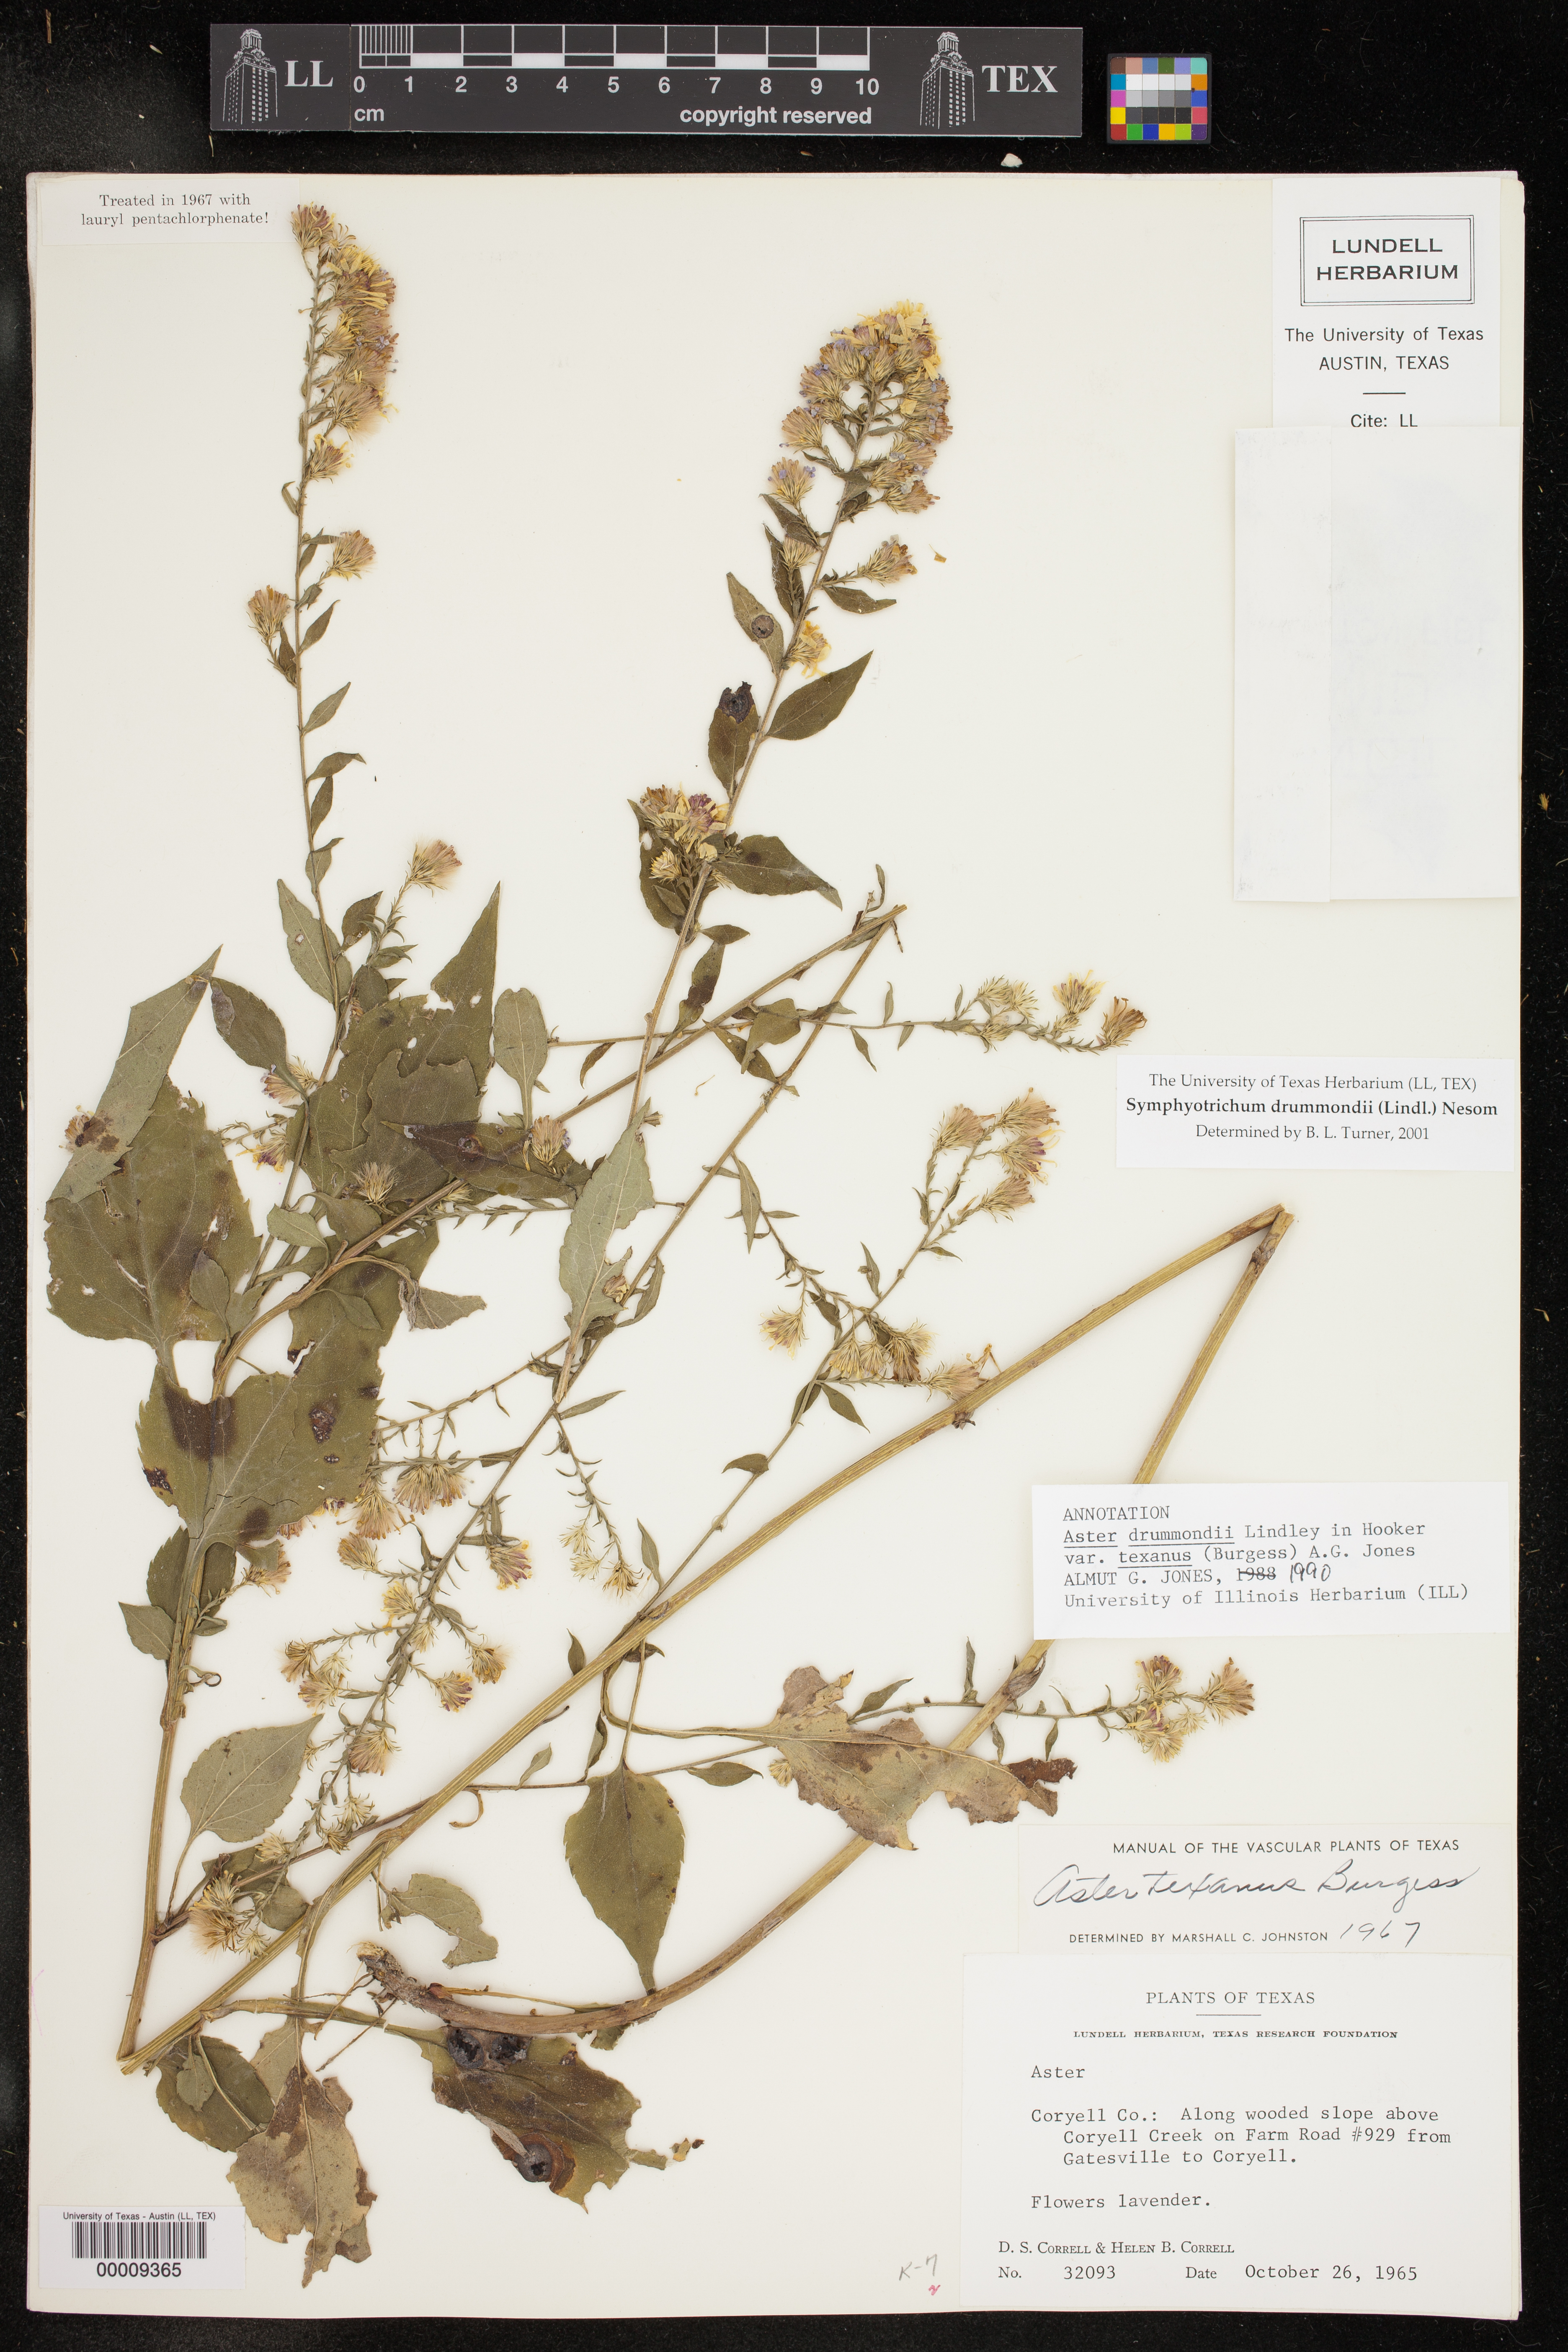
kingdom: Plantae
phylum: Tracheophyta
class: Magnoliopsida
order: Asterales
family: Asteraceae
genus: Symphyotrichum
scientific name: Symphyotrichum drummondii
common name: Drummond's aster
